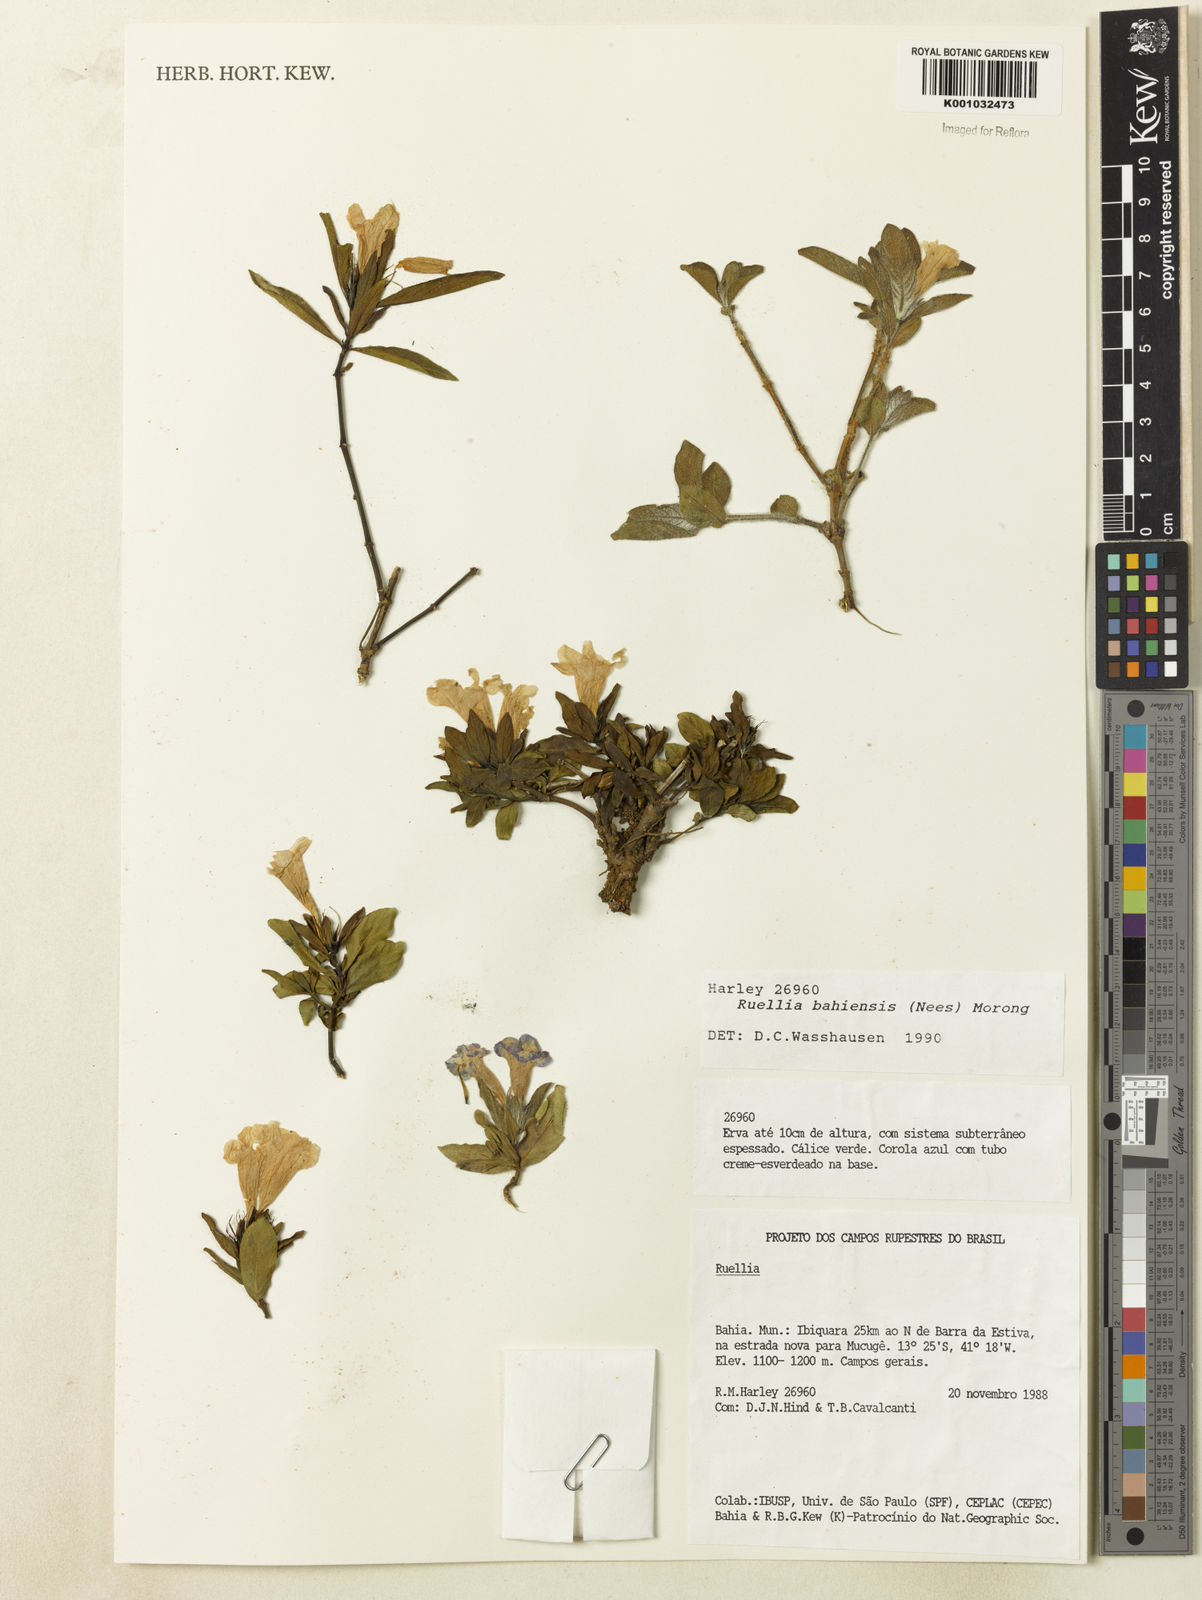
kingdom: Plantae
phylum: Tracheophyta
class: Magnoliopsida
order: Lamiales
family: Acanthaceae
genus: Ruellia
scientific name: Ruellia bahiensis
